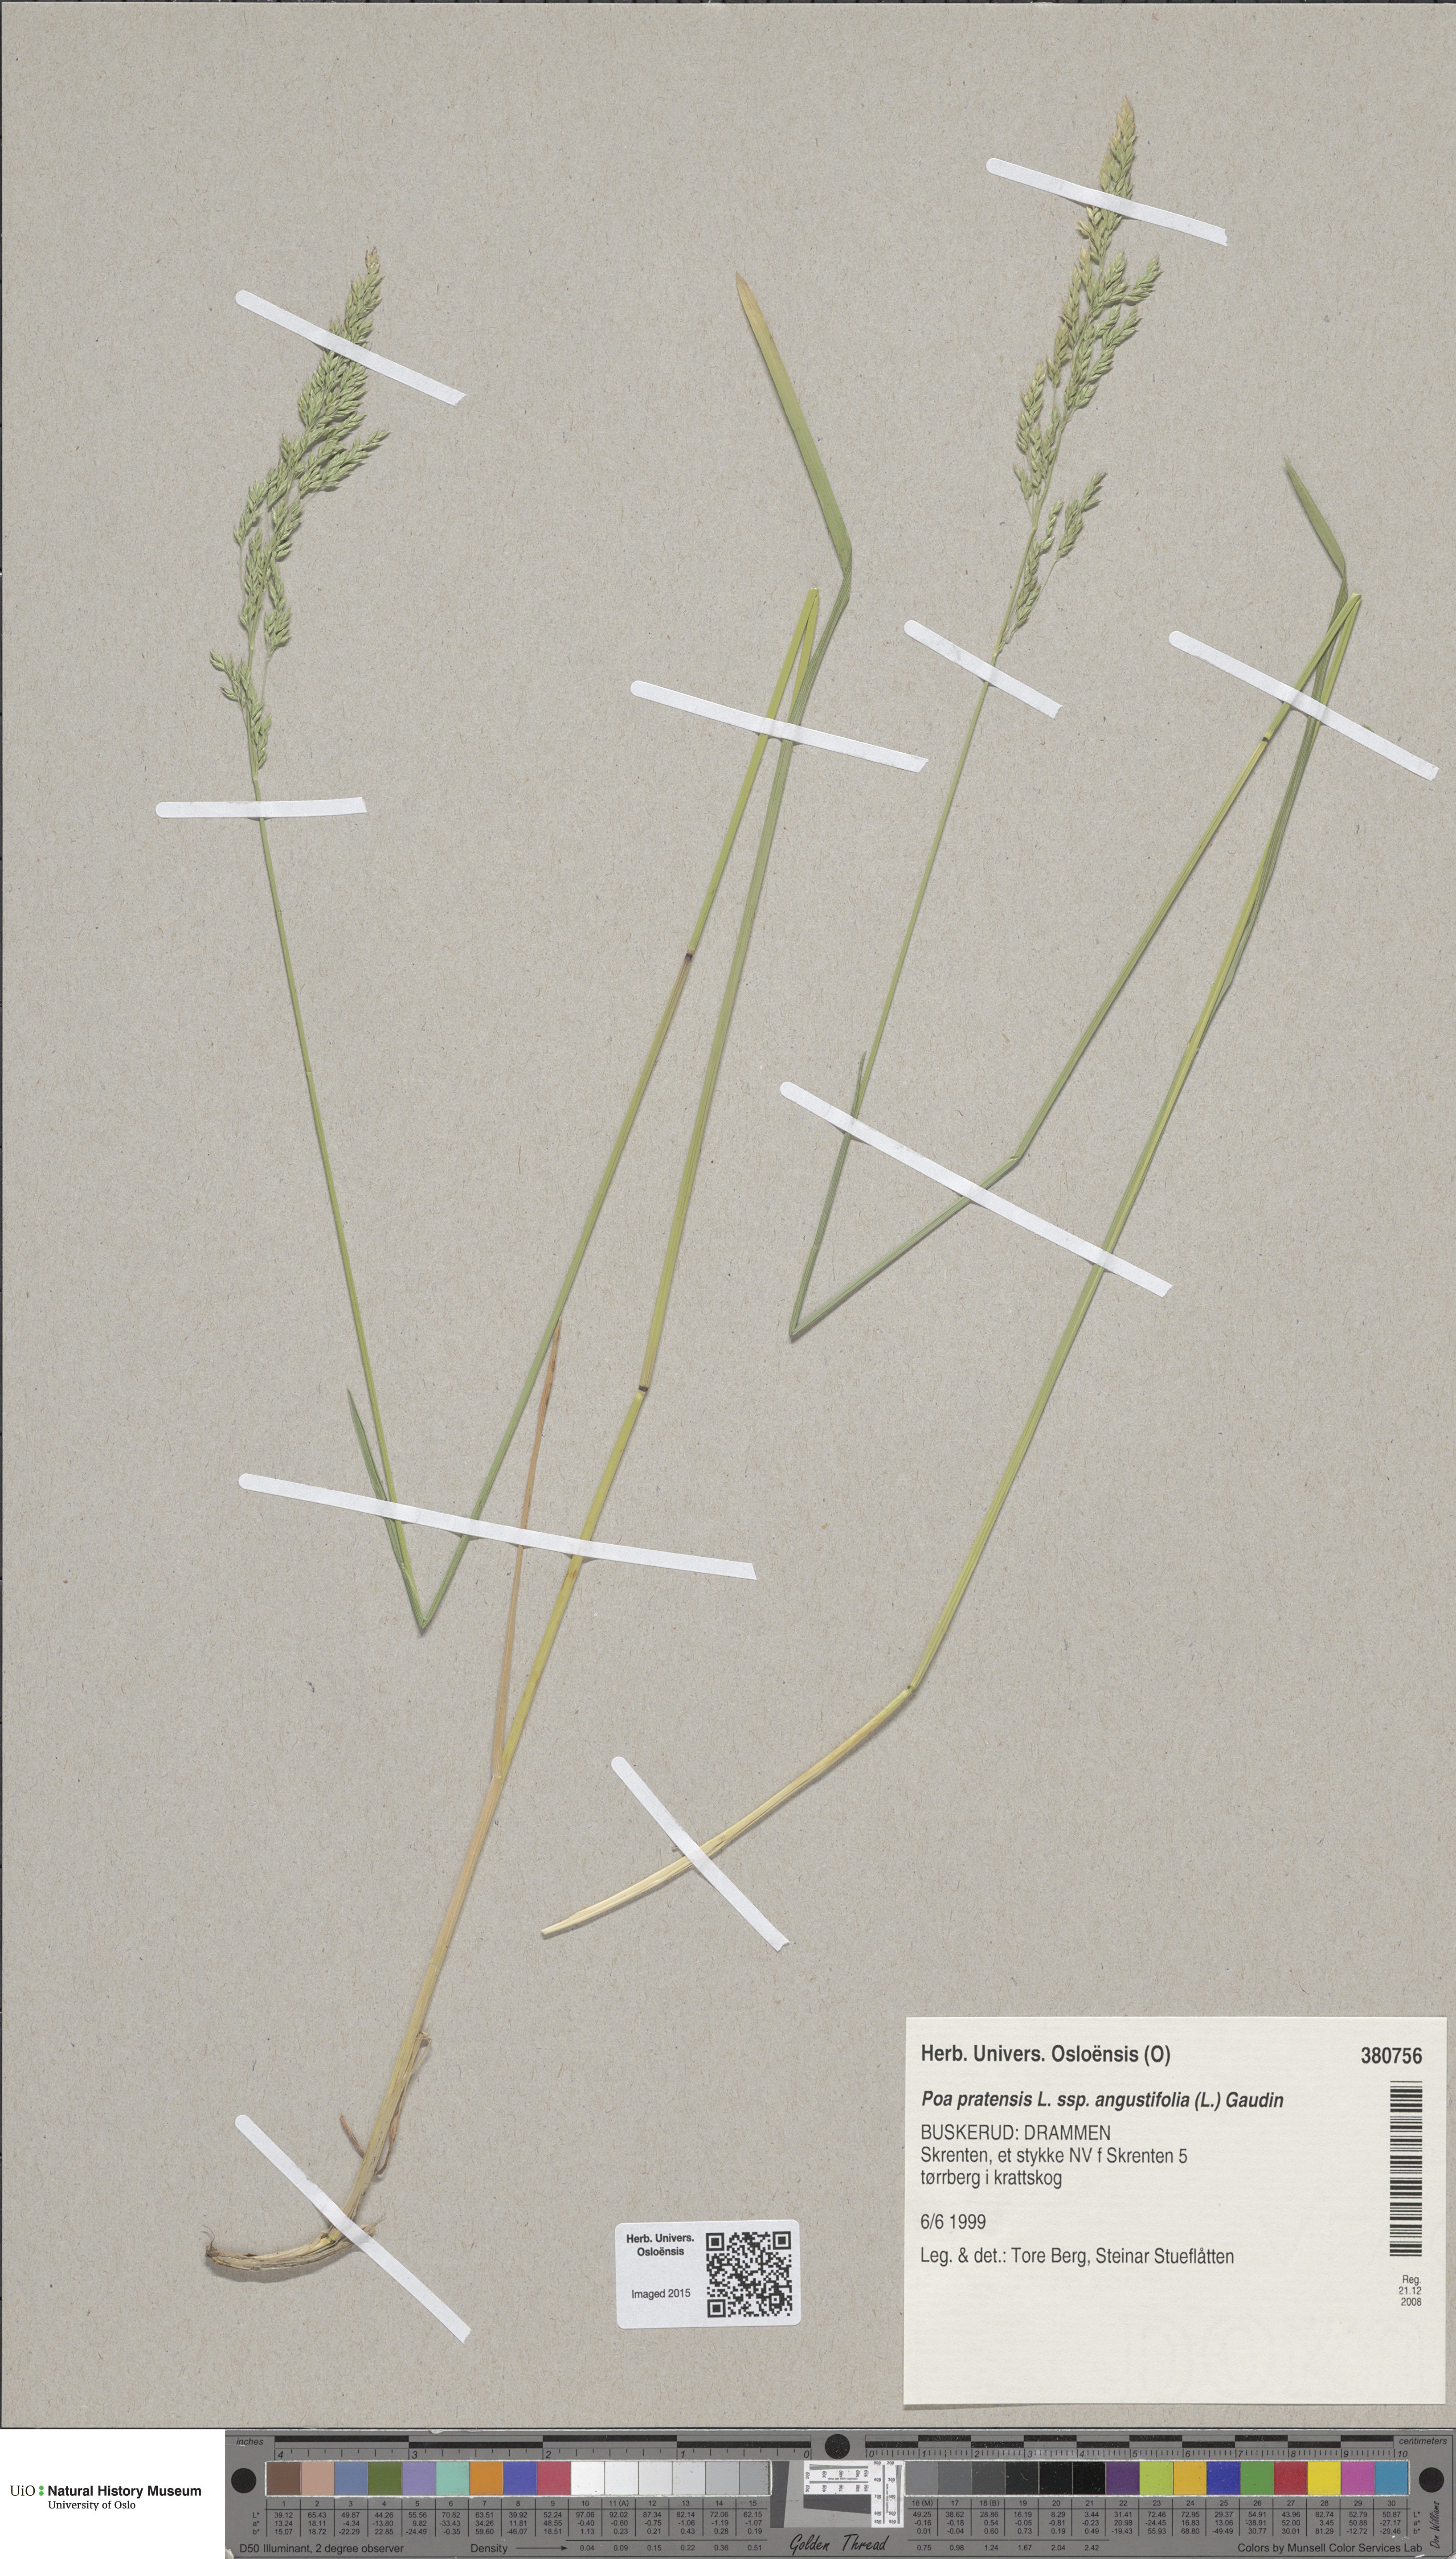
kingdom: Plantae
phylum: Tracheophyta
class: Liliopsida
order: Poales
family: Poaceae
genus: Poa
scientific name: Poa angustifolia
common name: Narrow-leaved meadow-grass
